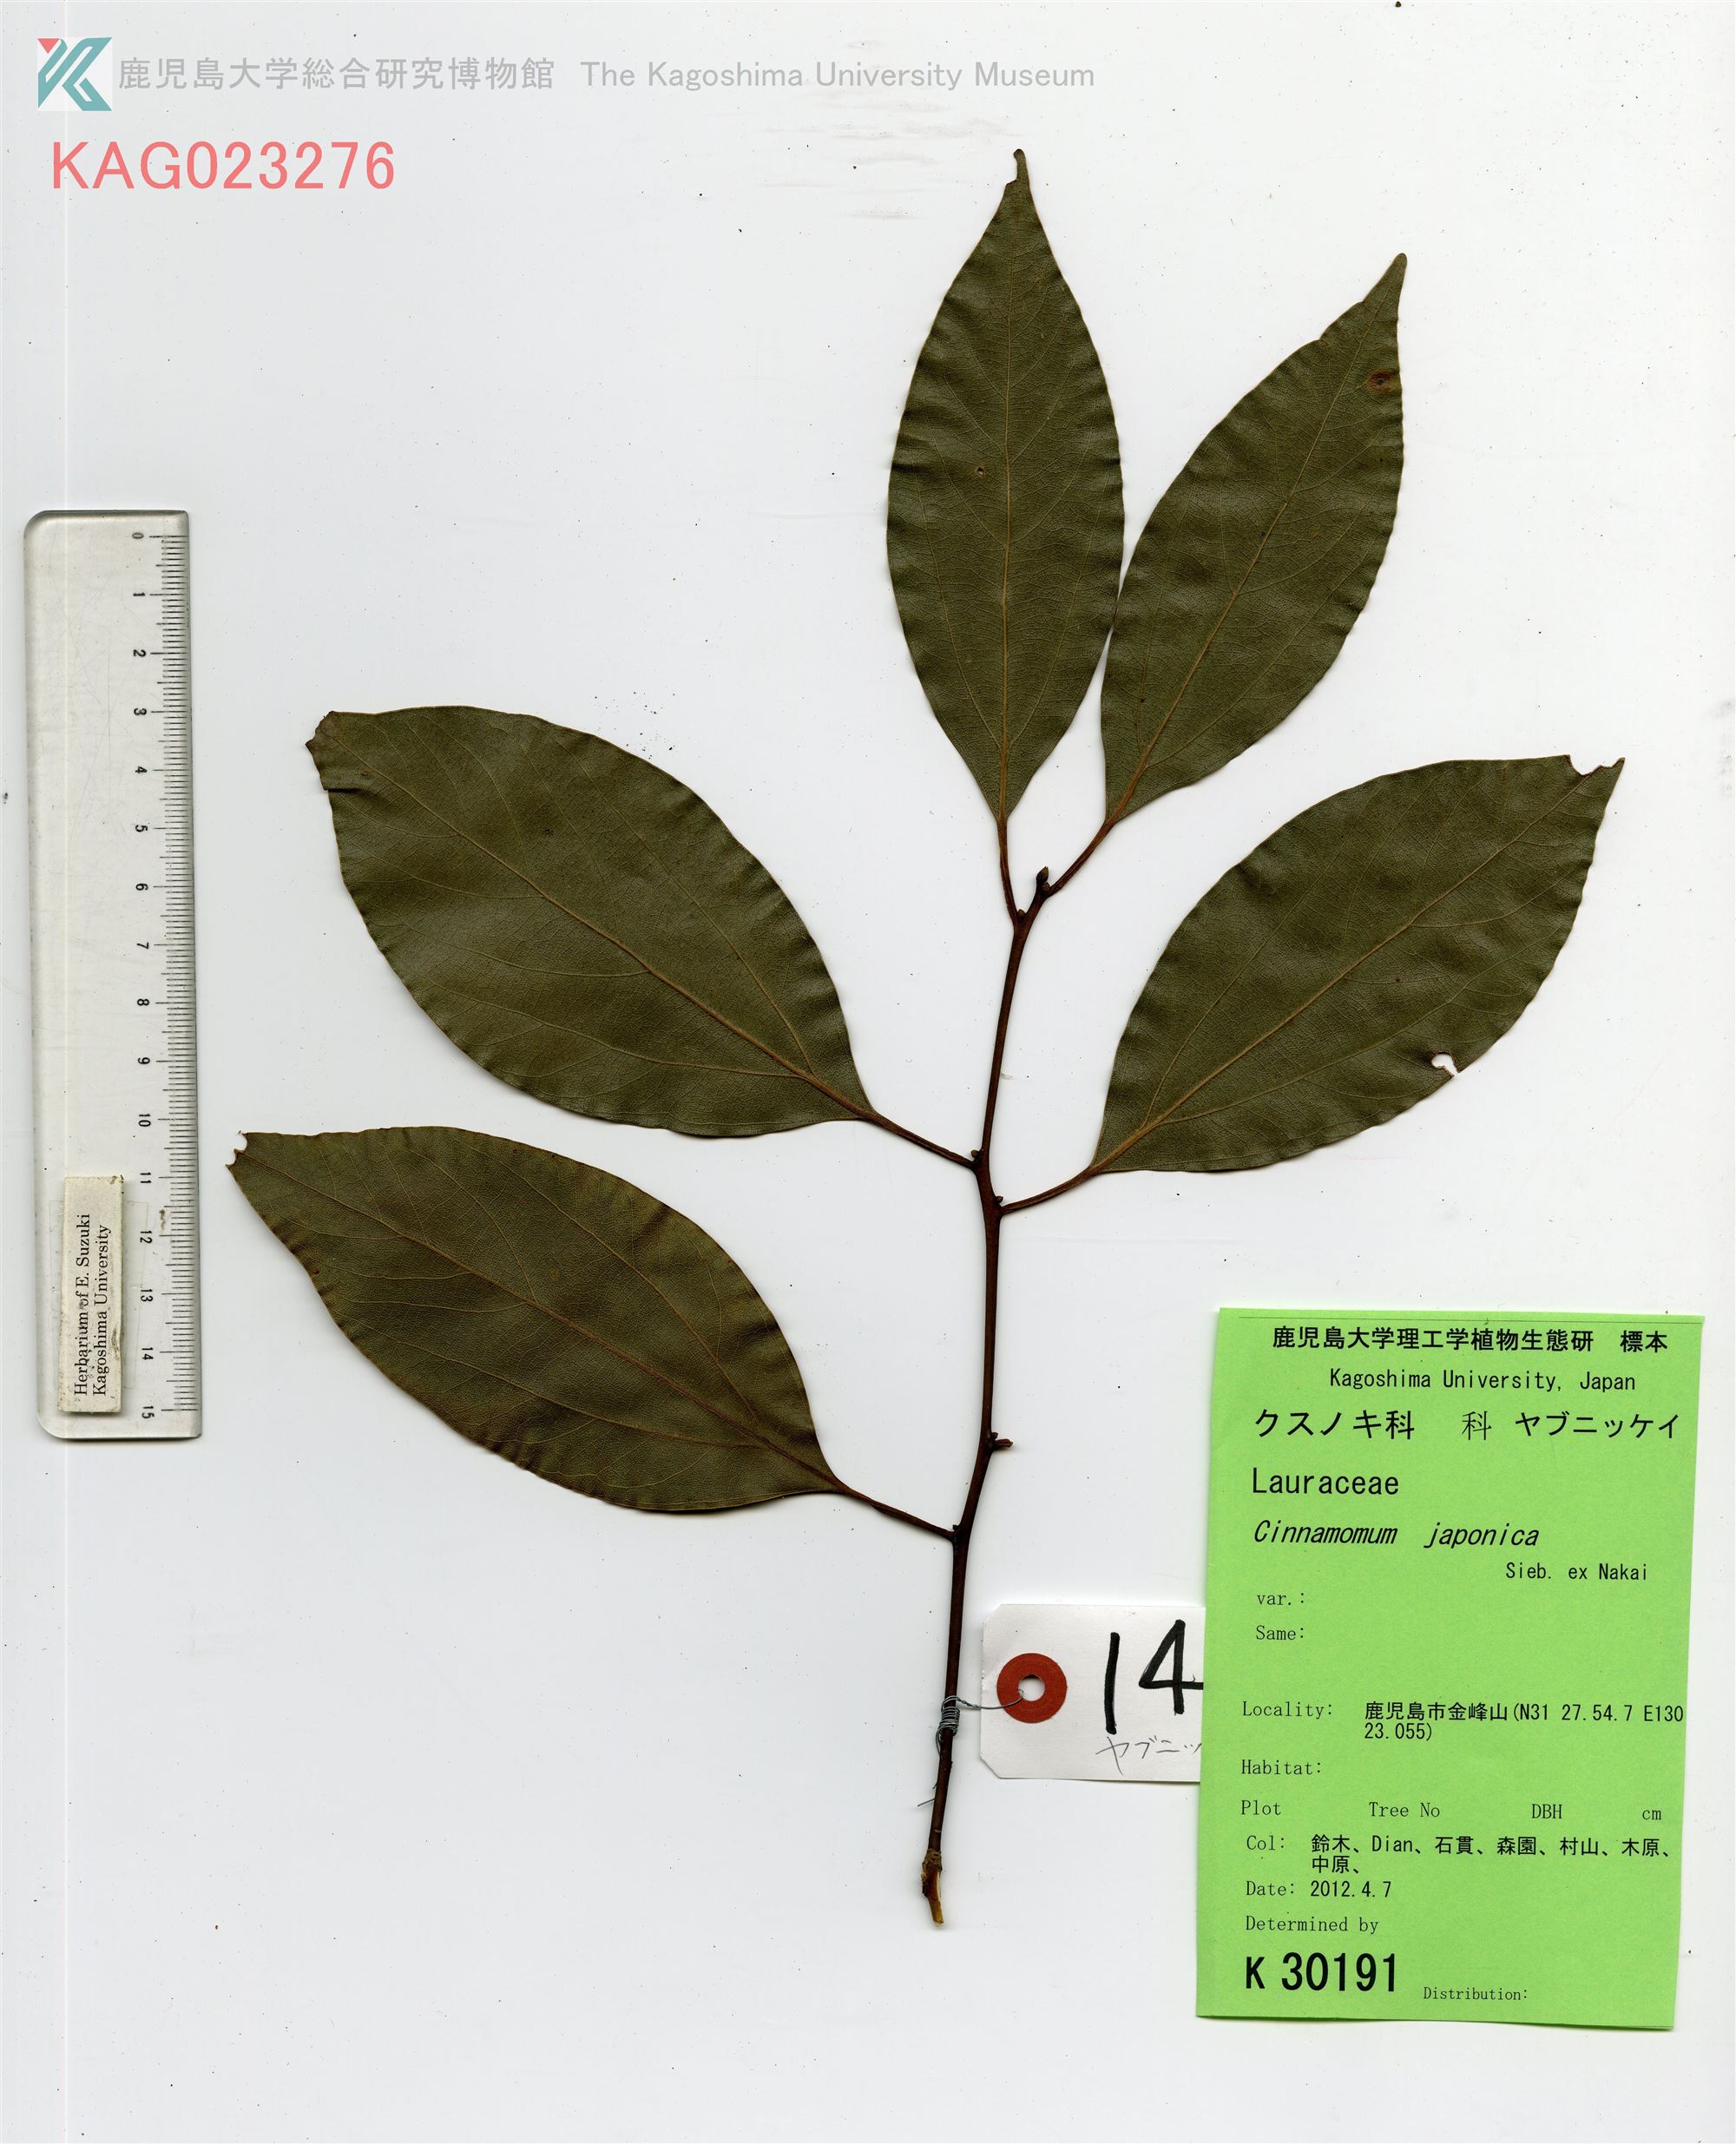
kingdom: Plantae
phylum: Tracheophyta
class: Magnoliopsida
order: Laurales
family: Lauraceae
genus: Cinnamomum
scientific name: Cinnamomum chekiangense
